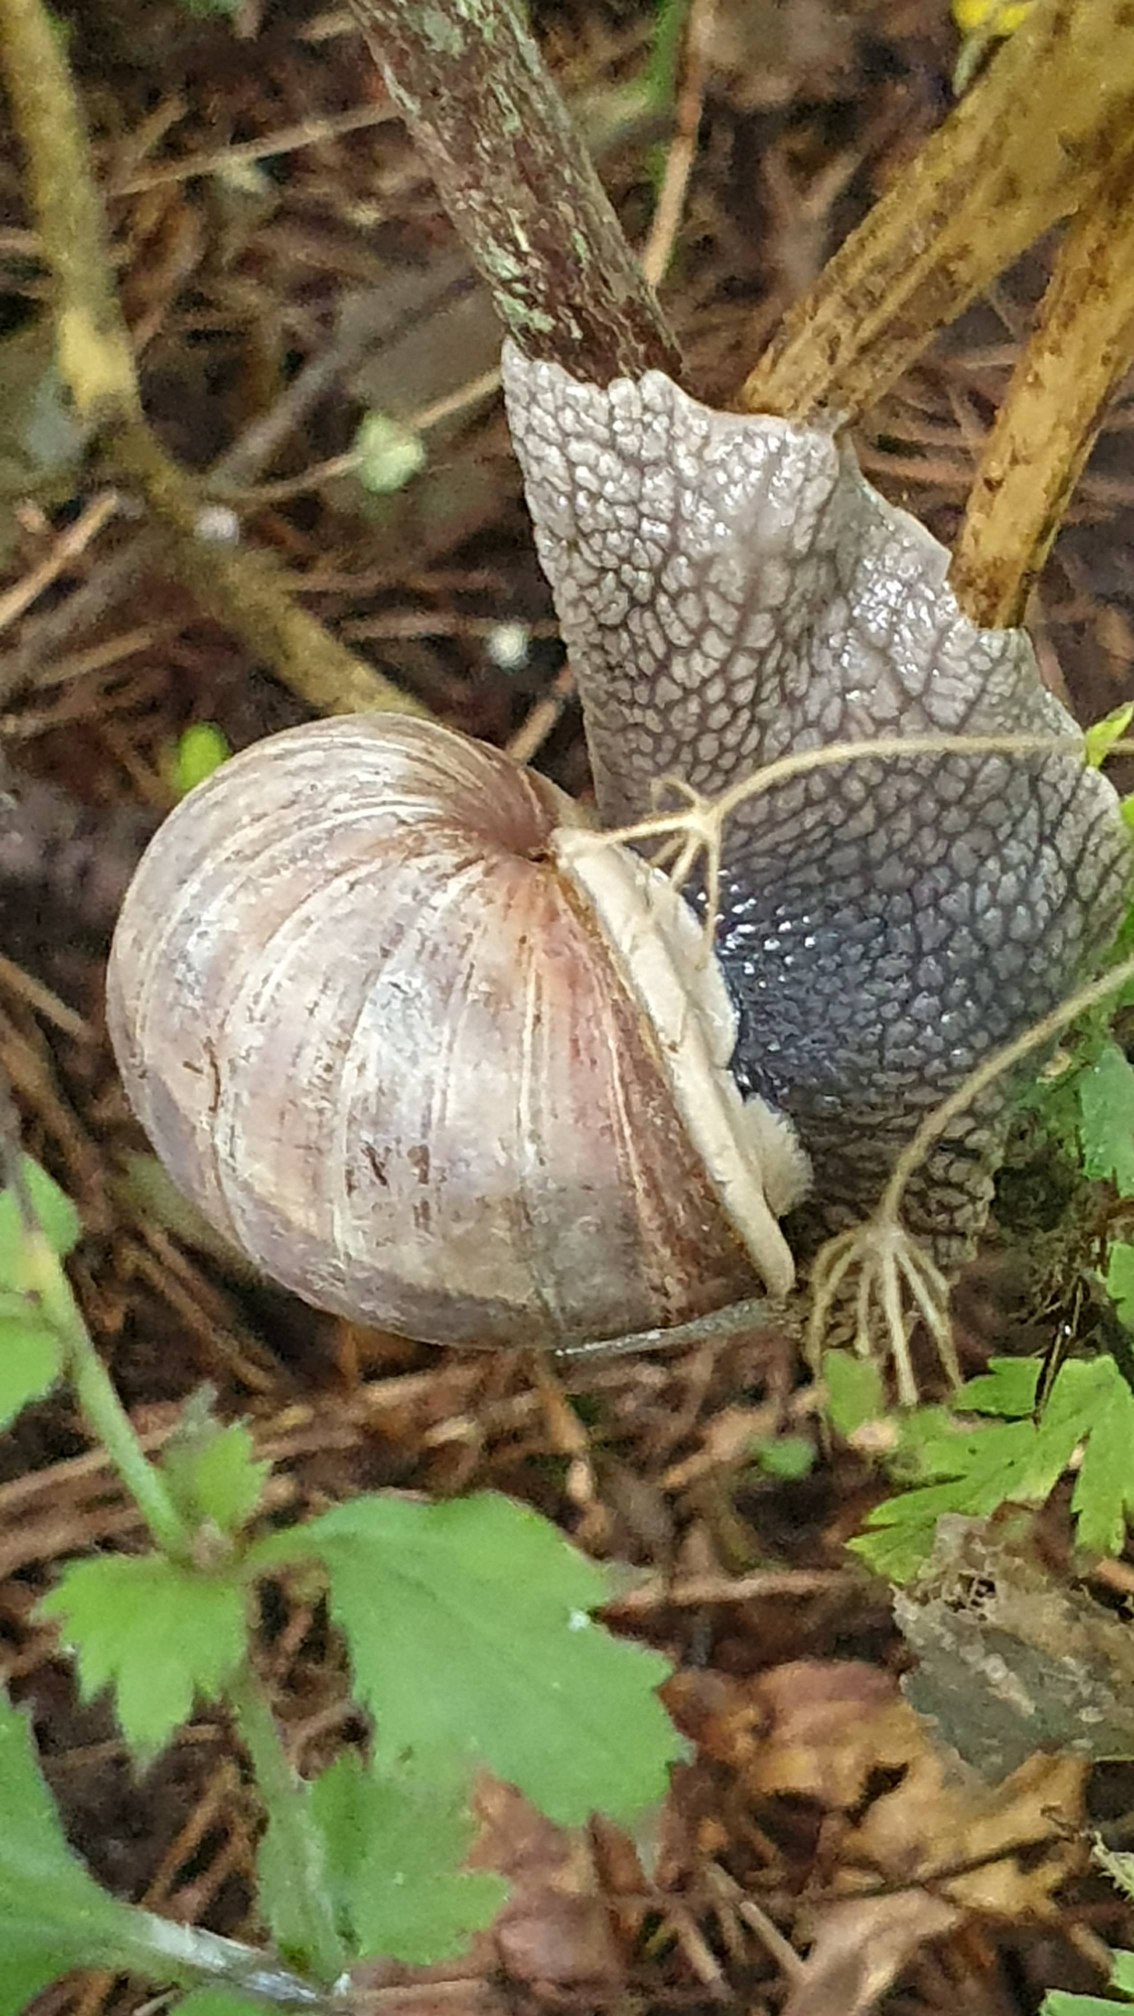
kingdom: Animalia
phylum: Mollusca
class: Gastropoda
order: Stylommatophora
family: Helicidae
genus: Helix
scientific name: Helix pomatia
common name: Vinbjergsnegl
